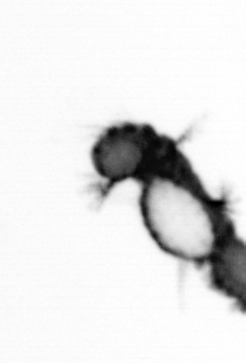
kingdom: Animalia
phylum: Annelida
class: Polychaeta
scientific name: Polychaeta
